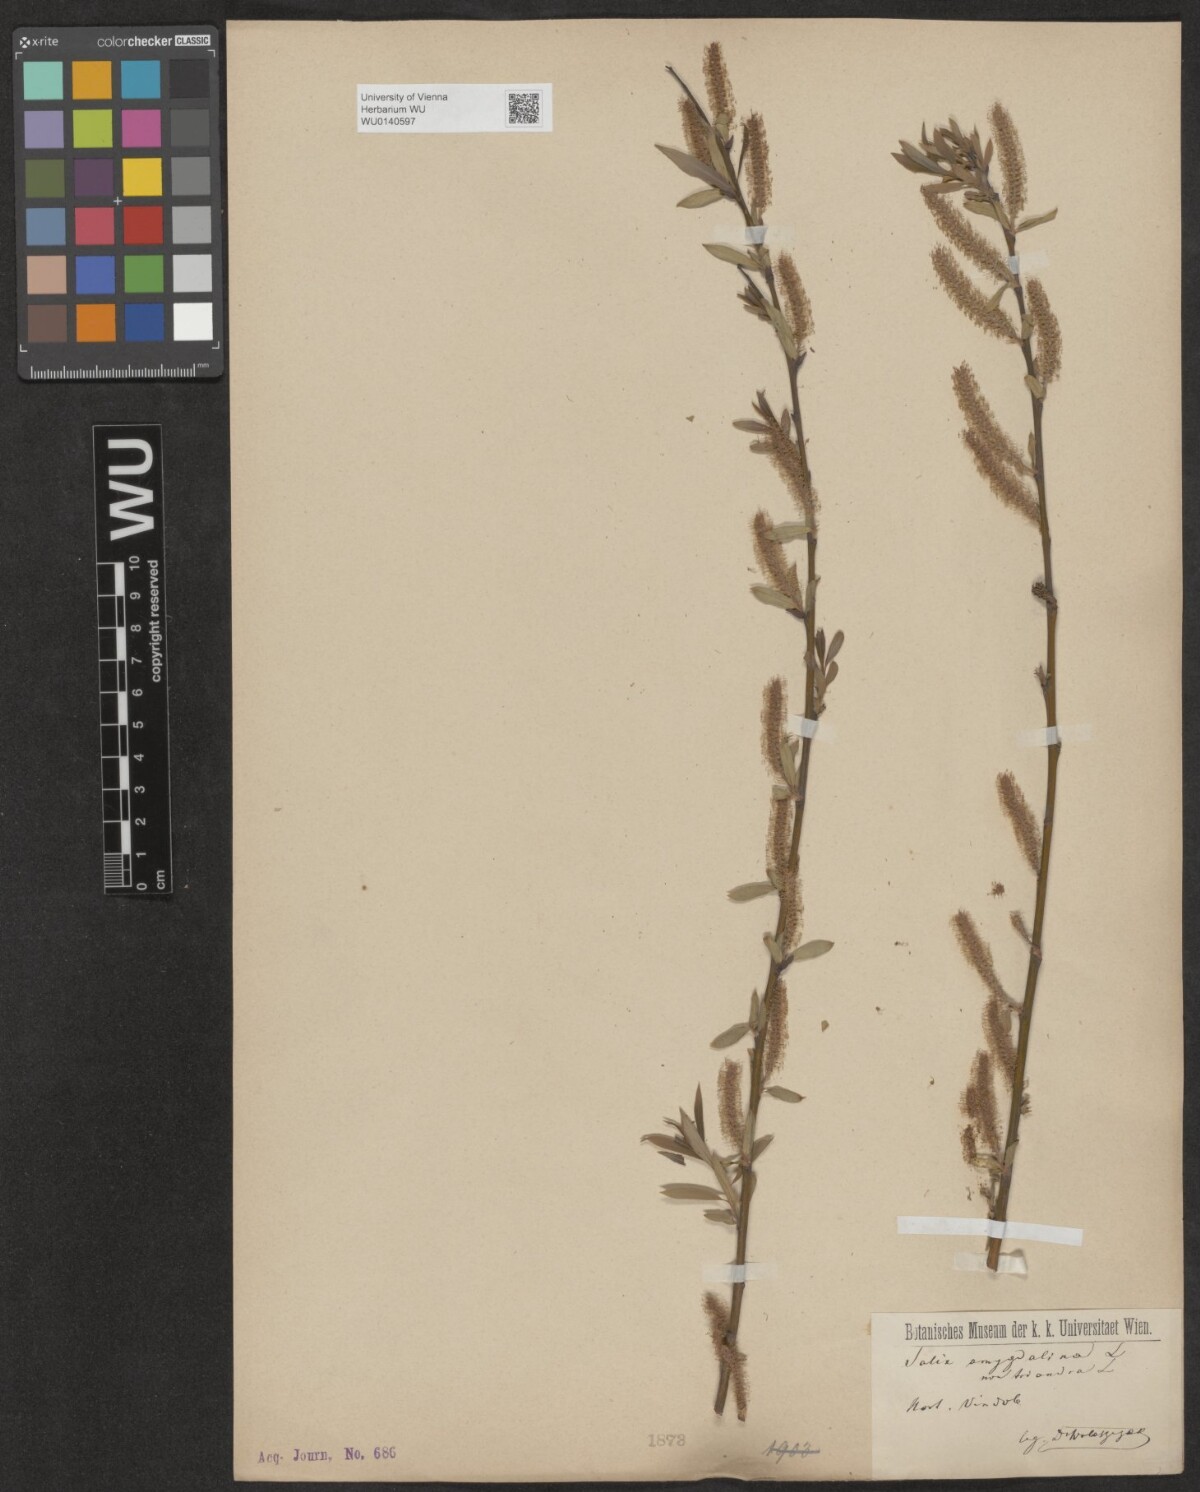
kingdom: Plantae
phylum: Tracheophyta
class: Magnoliopsida
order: Malpighiales
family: Salicaceae
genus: Salix
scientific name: Salix triandra
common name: Almond willow
